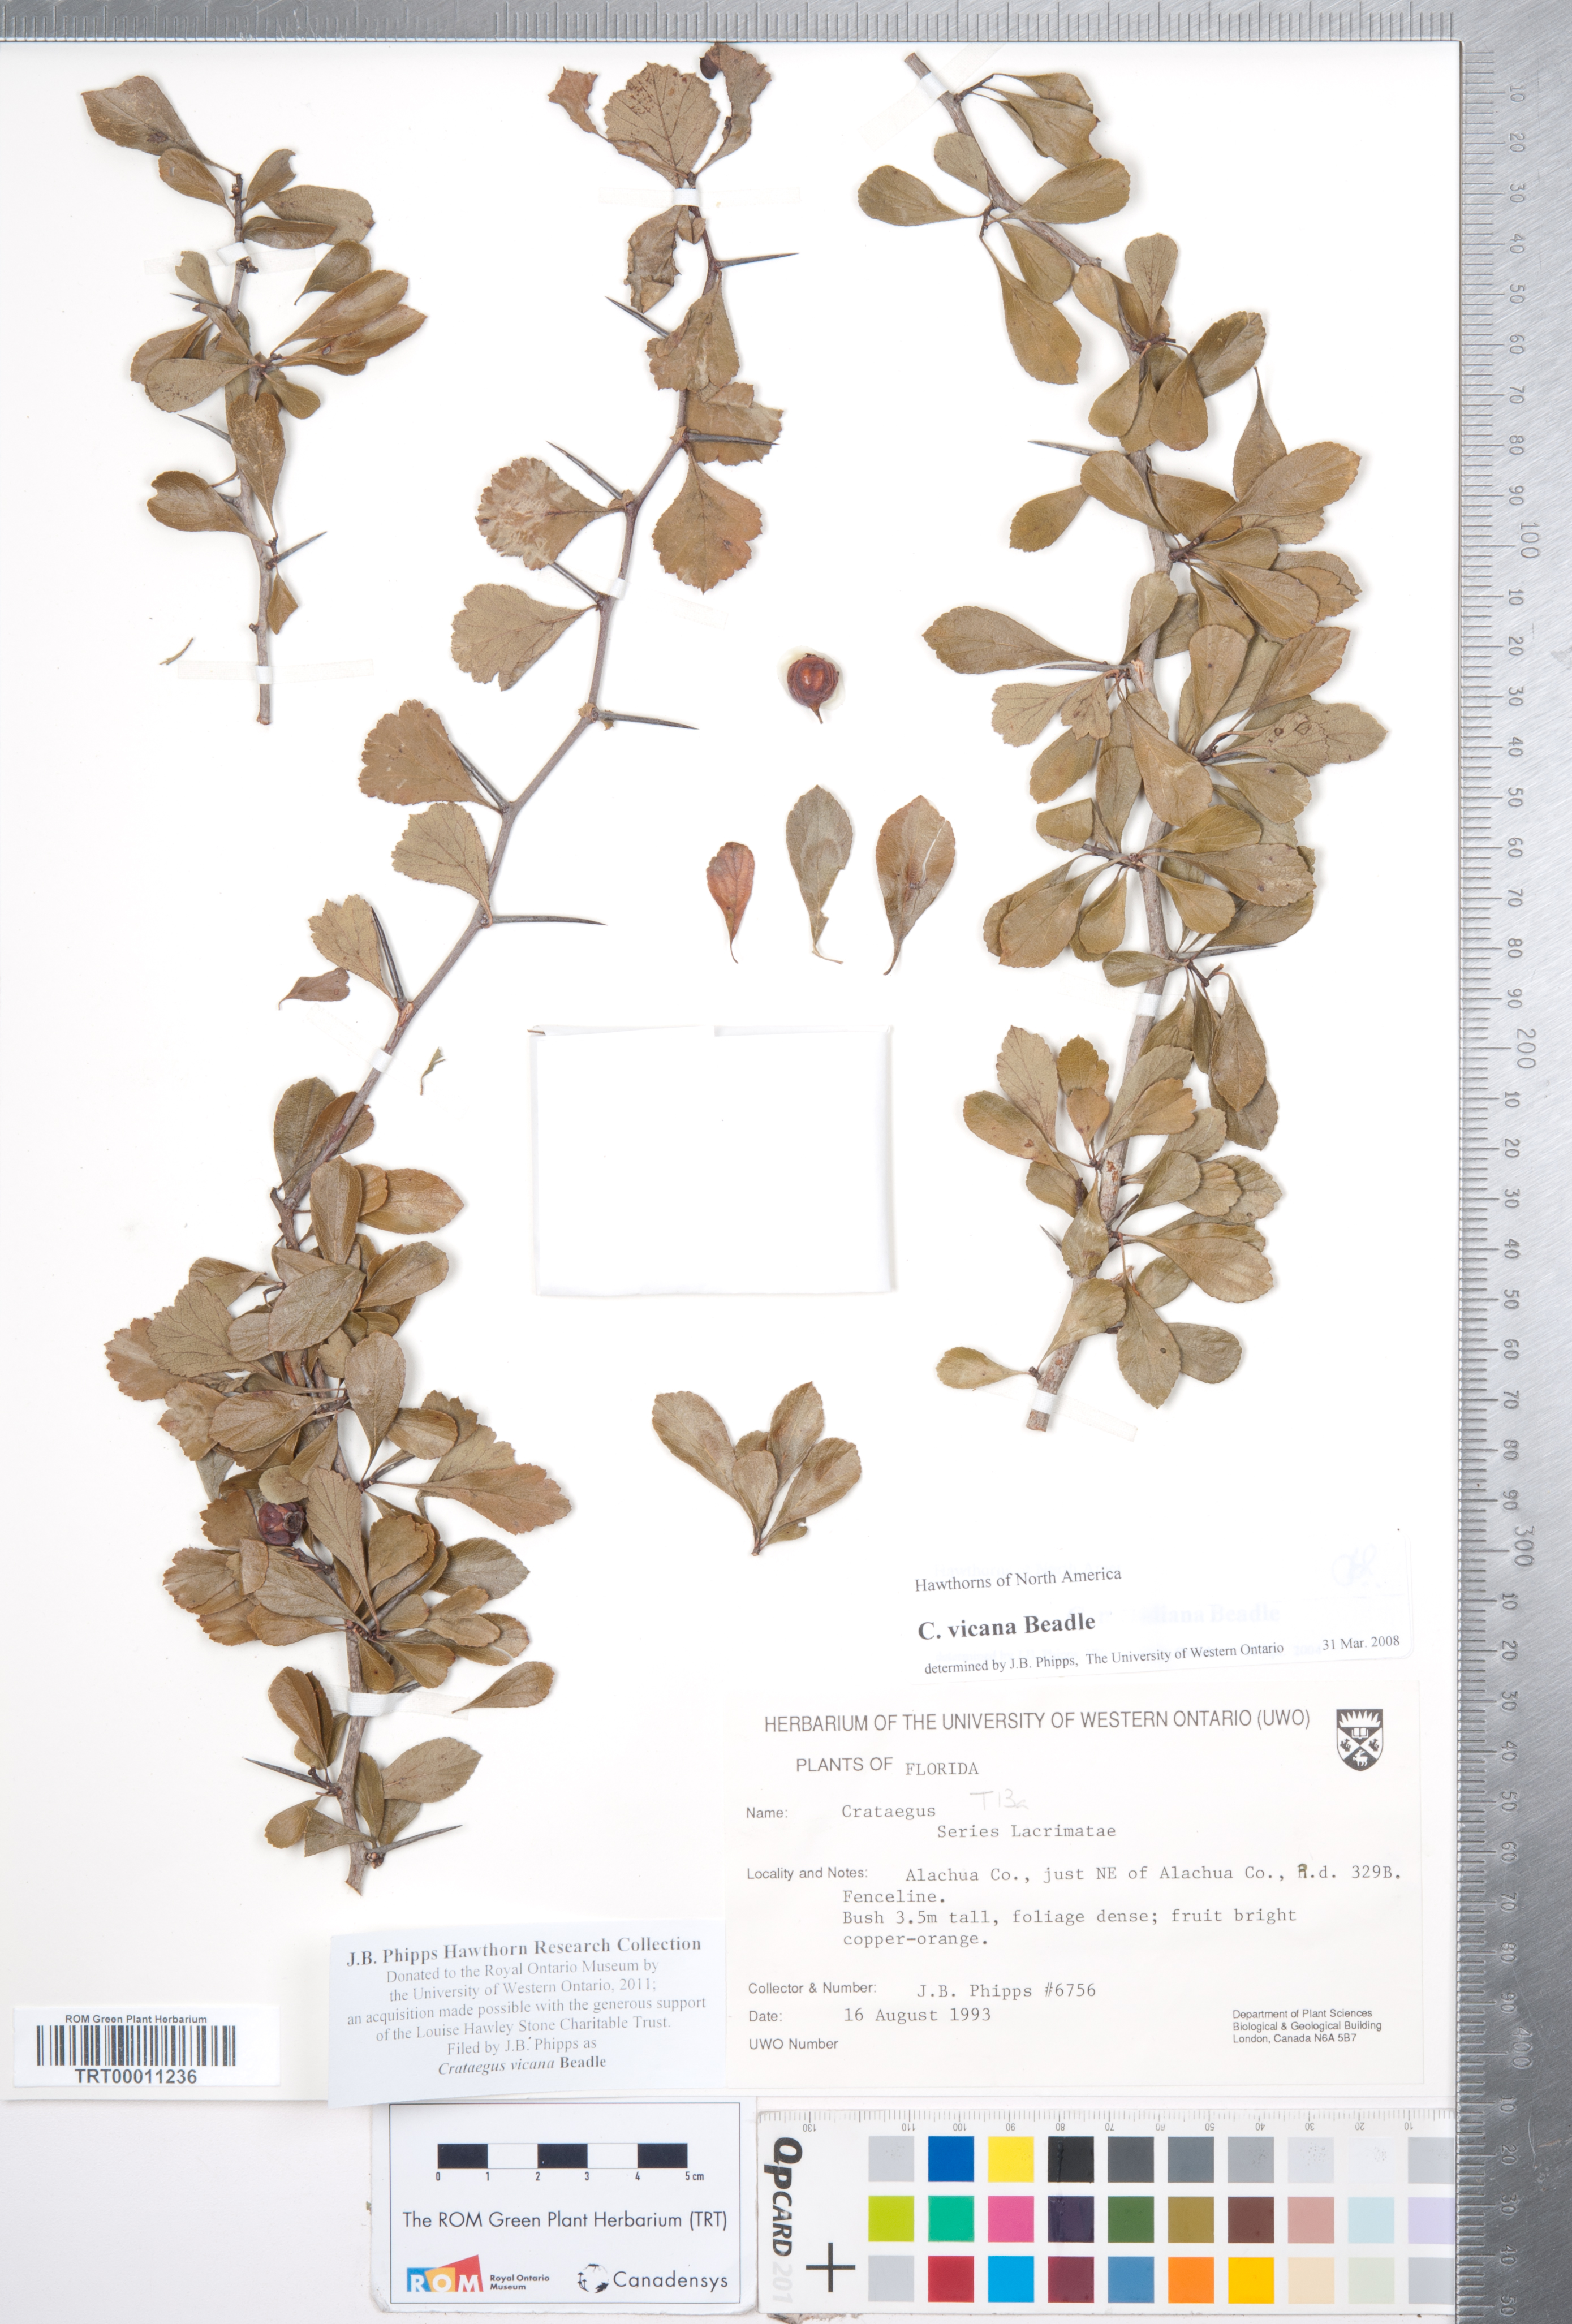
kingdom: Plantae
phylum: Tracheophyta
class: Magnoliopsida
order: Rosales
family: Rosaceae
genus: Crataegus
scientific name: Crataegus lassa
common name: Florida hawthorn
